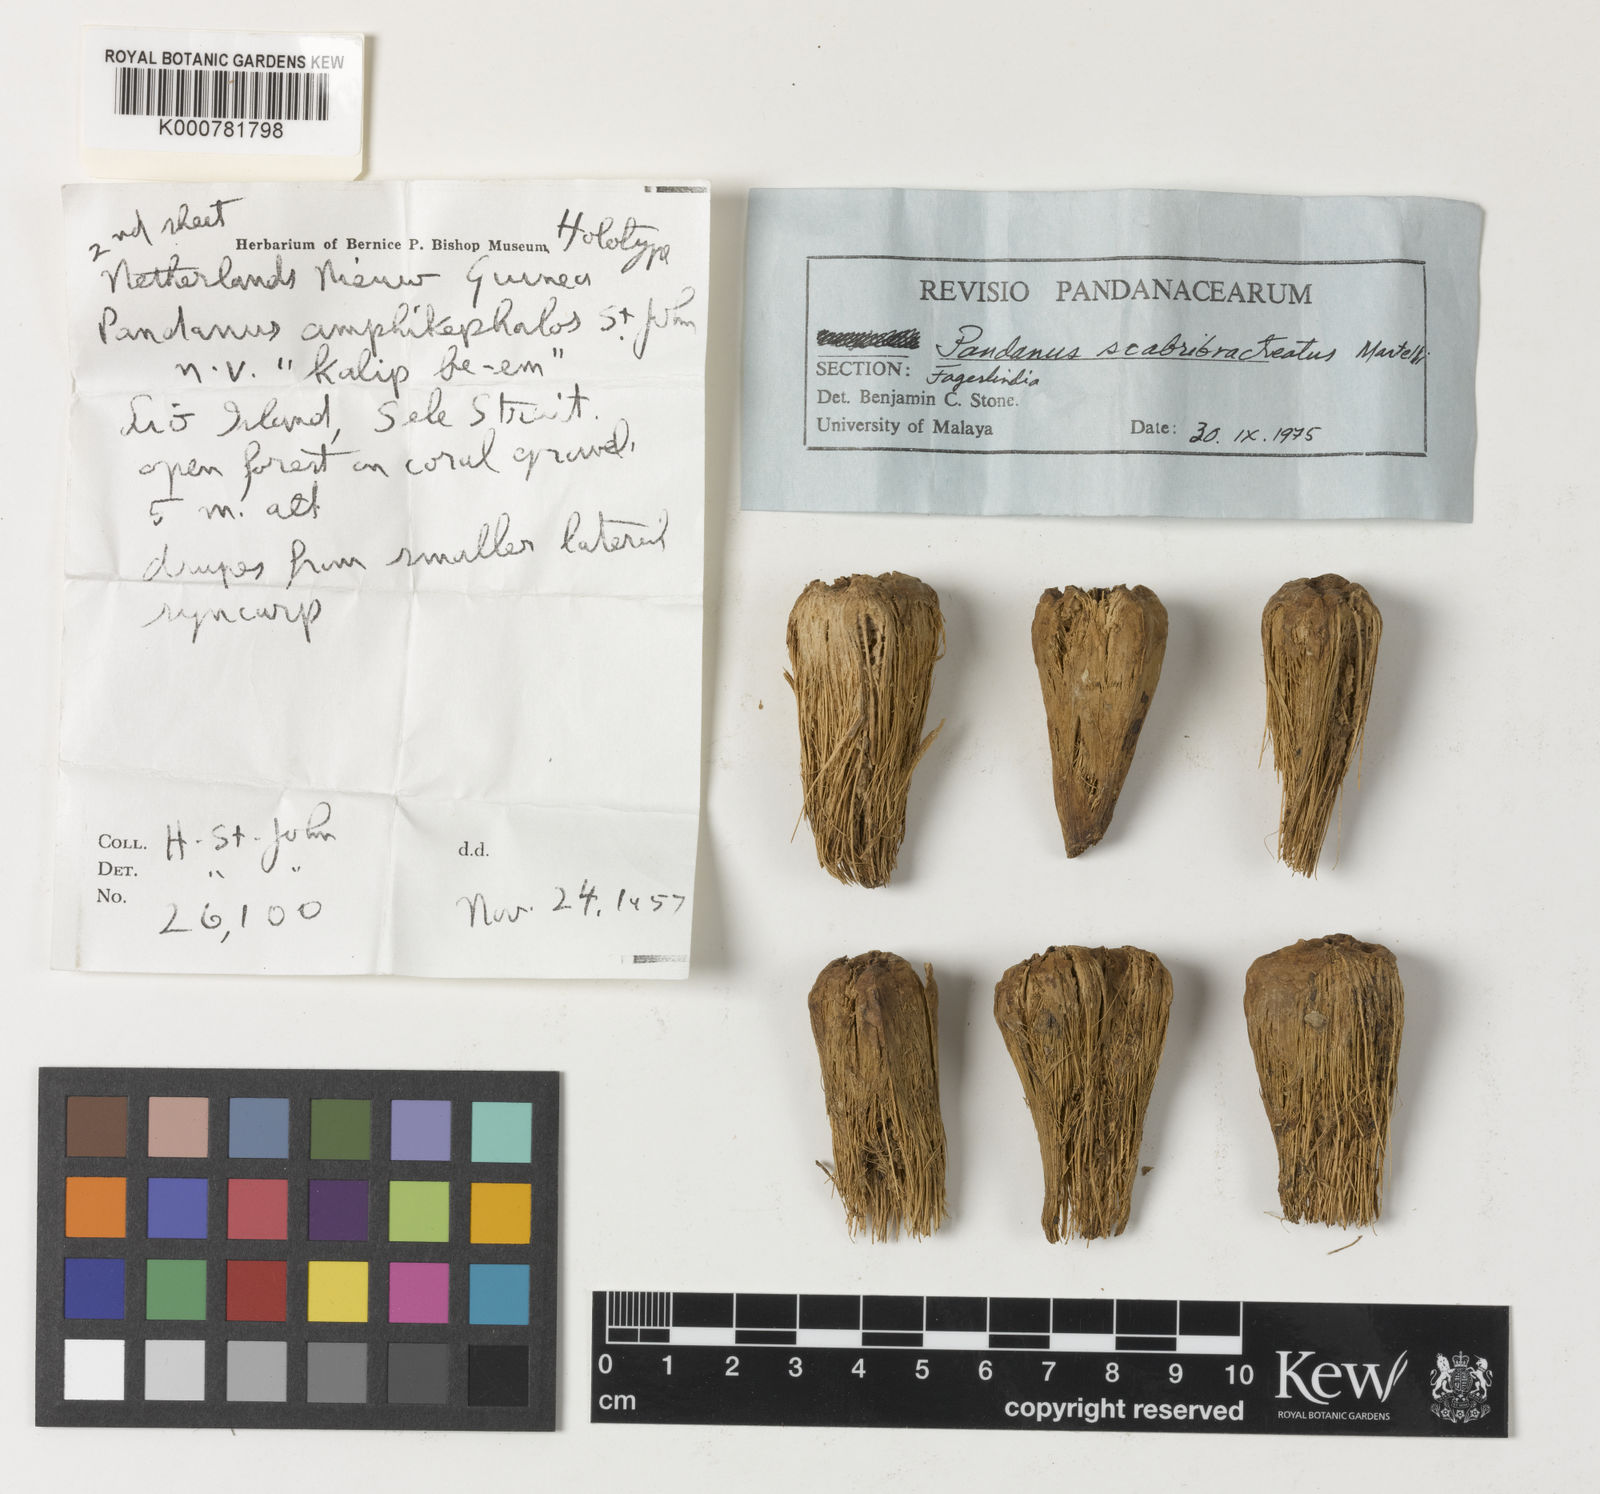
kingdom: Plantae
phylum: Tracheophyta
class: Liliopsida
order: Pandanales
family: Pandanaceae
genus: Pandanus
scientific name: Pandanus kaernbachii
